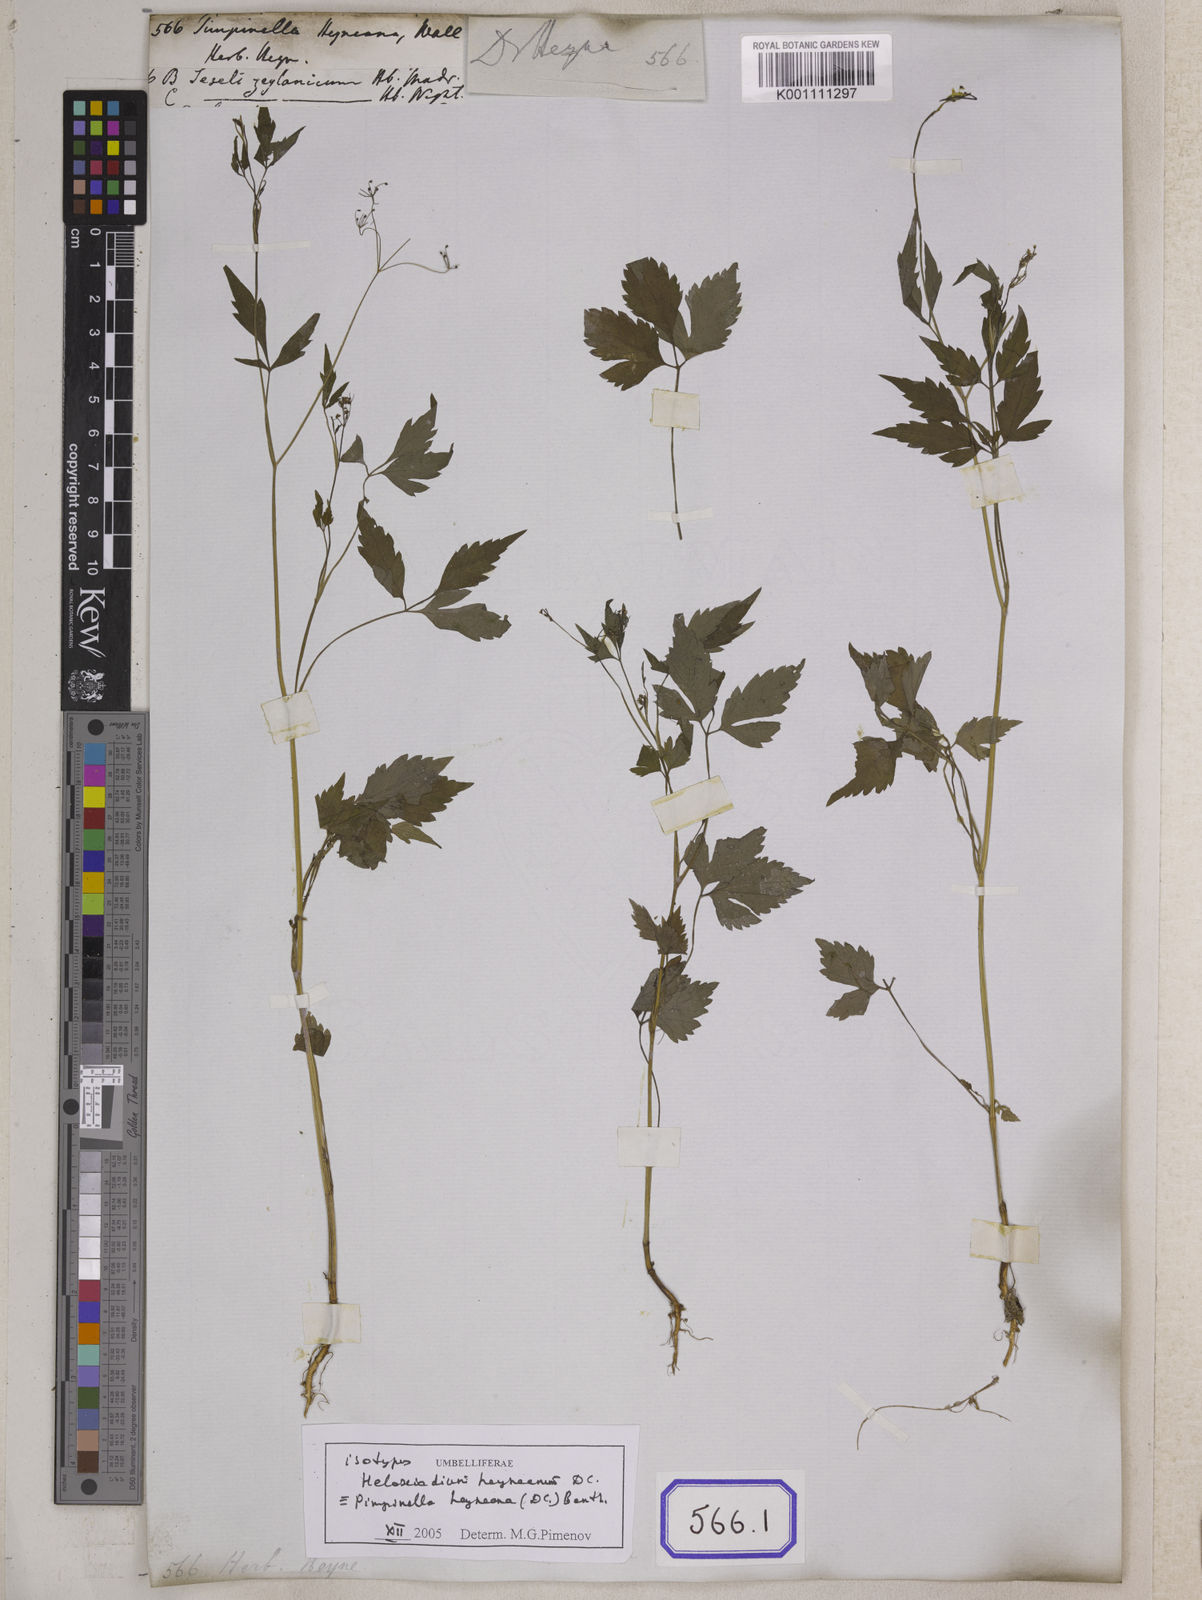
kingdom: Plantae
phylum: Tracheophyta
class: Magnoliopsida
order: Apiales
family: Apiaceae
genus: Pimpinella
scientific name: Pimpinella
